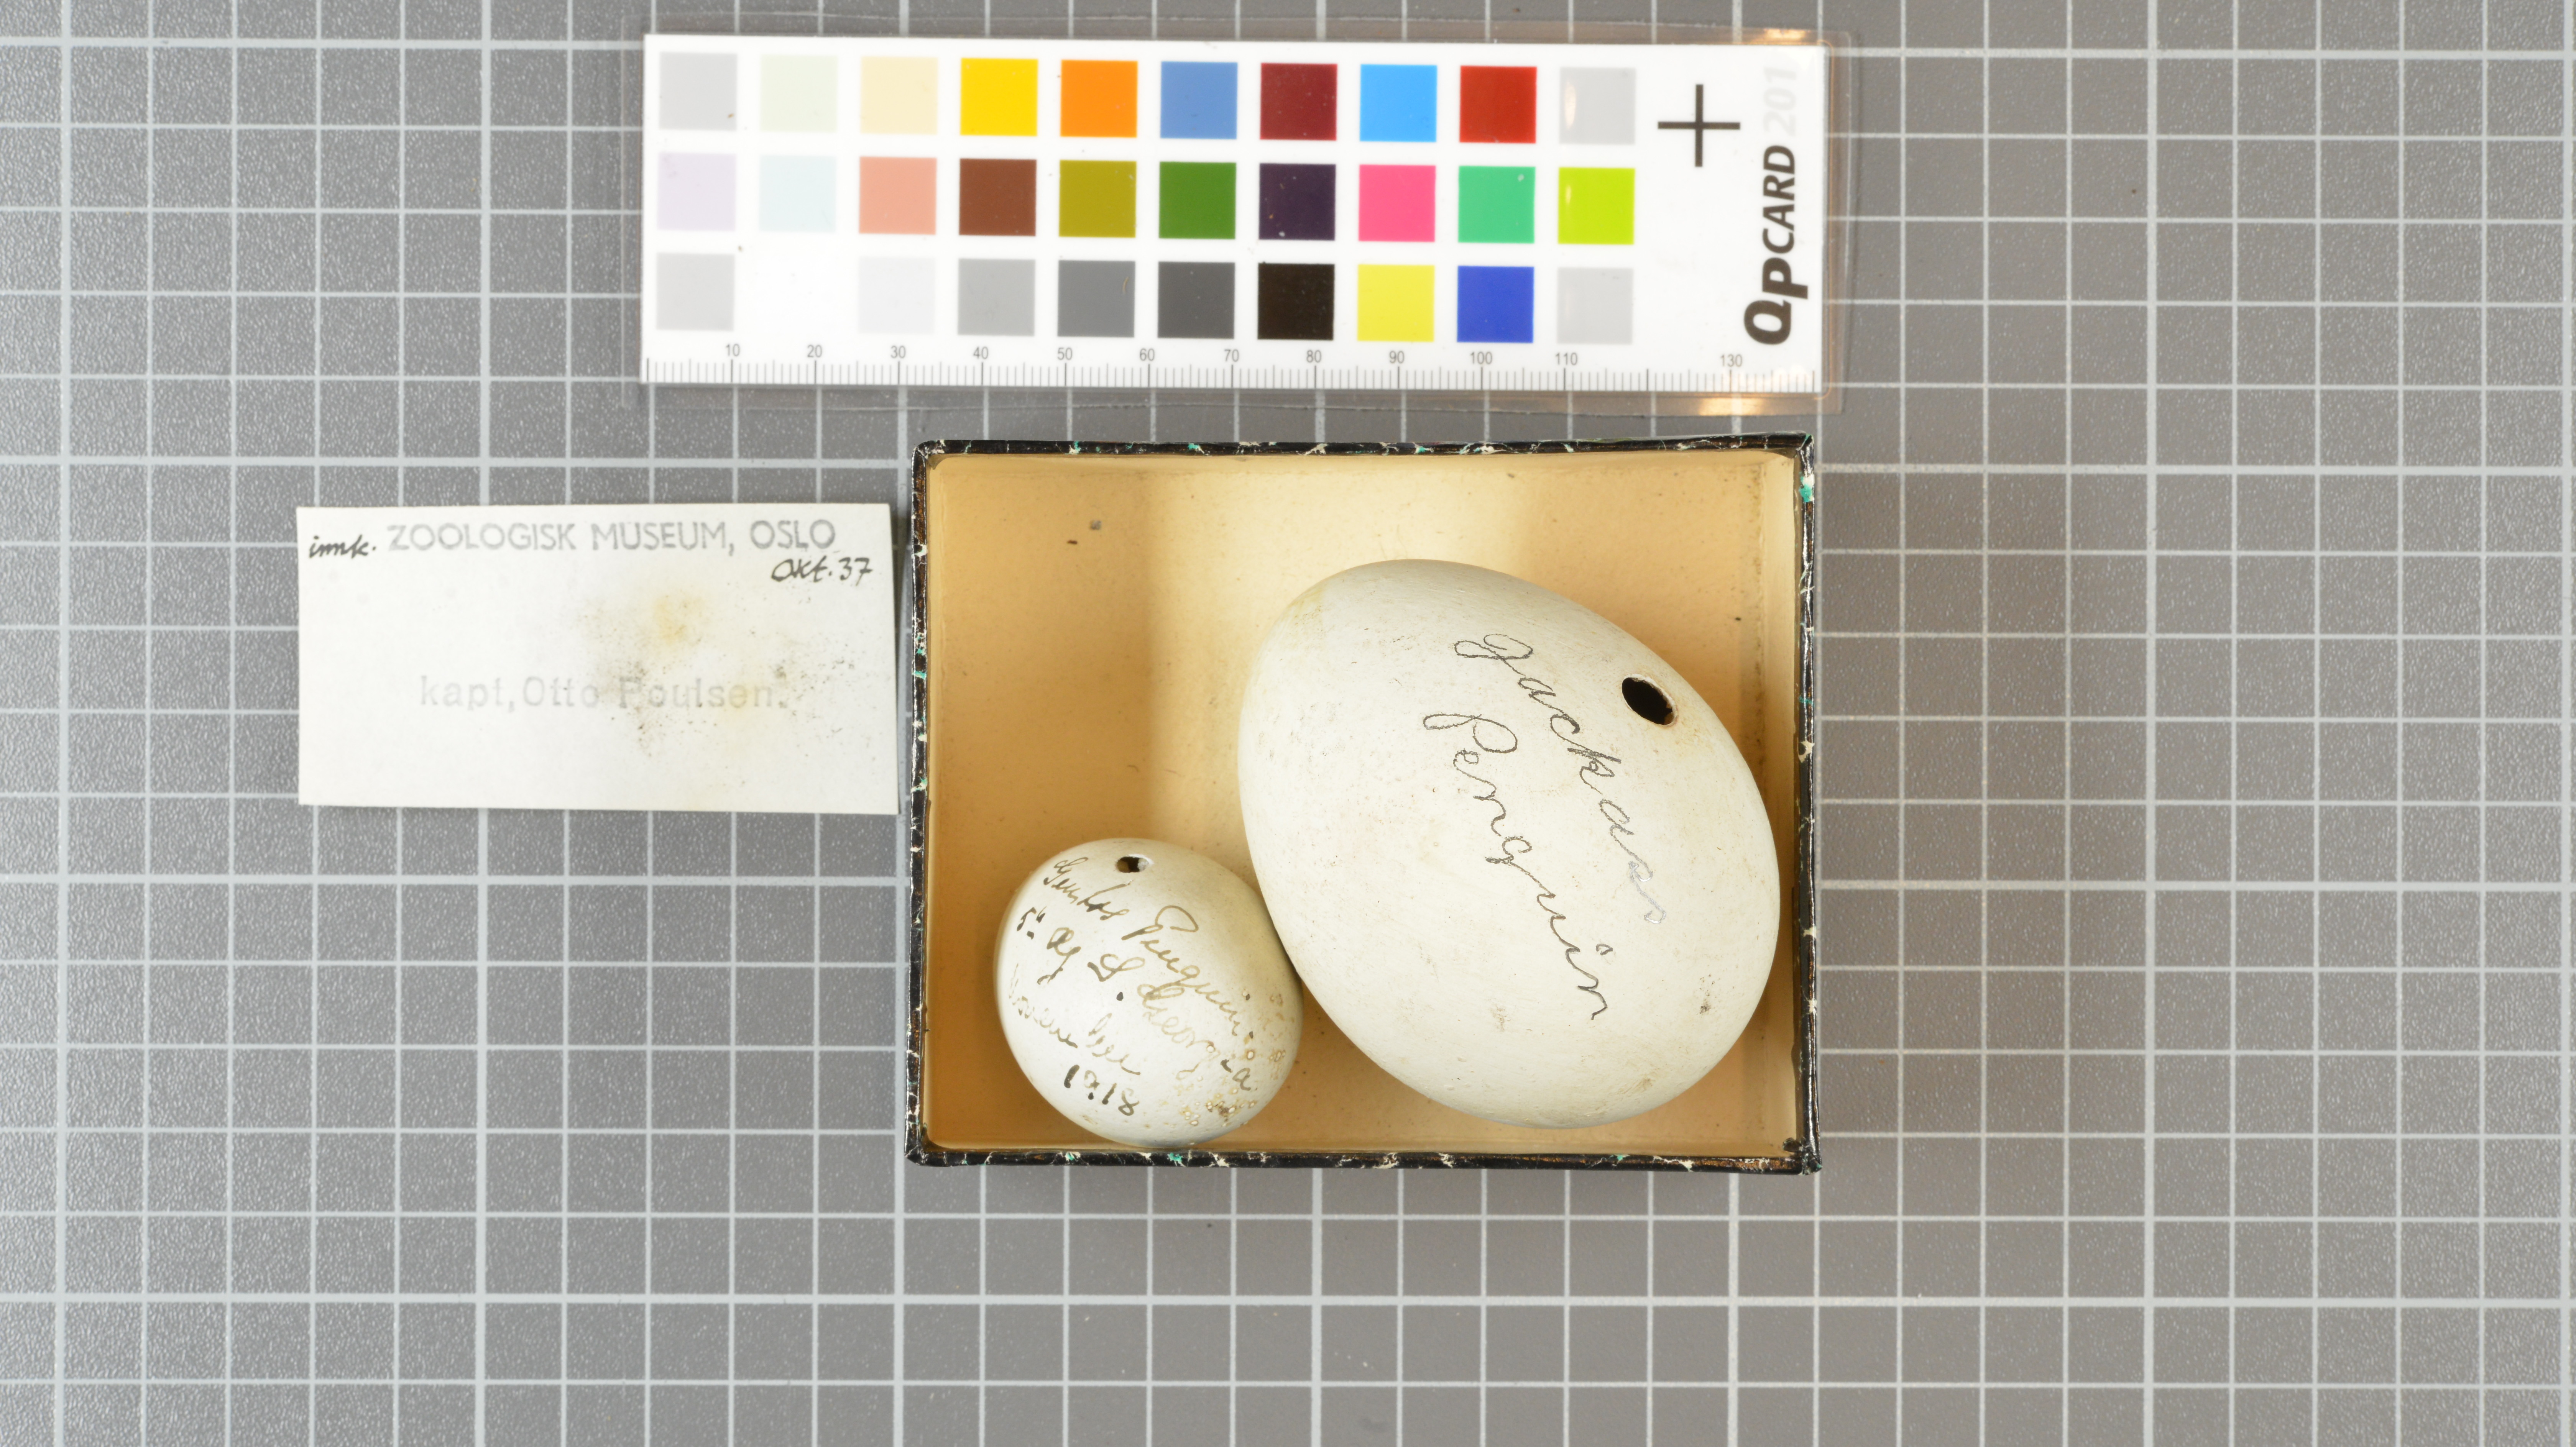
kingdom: Animalia
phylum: Chordata
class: Aves
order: Sphenisciformes
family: Spheniscidae
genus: Pygoscelis
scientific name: Pygoscelis papua
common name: Gentoo penguin
